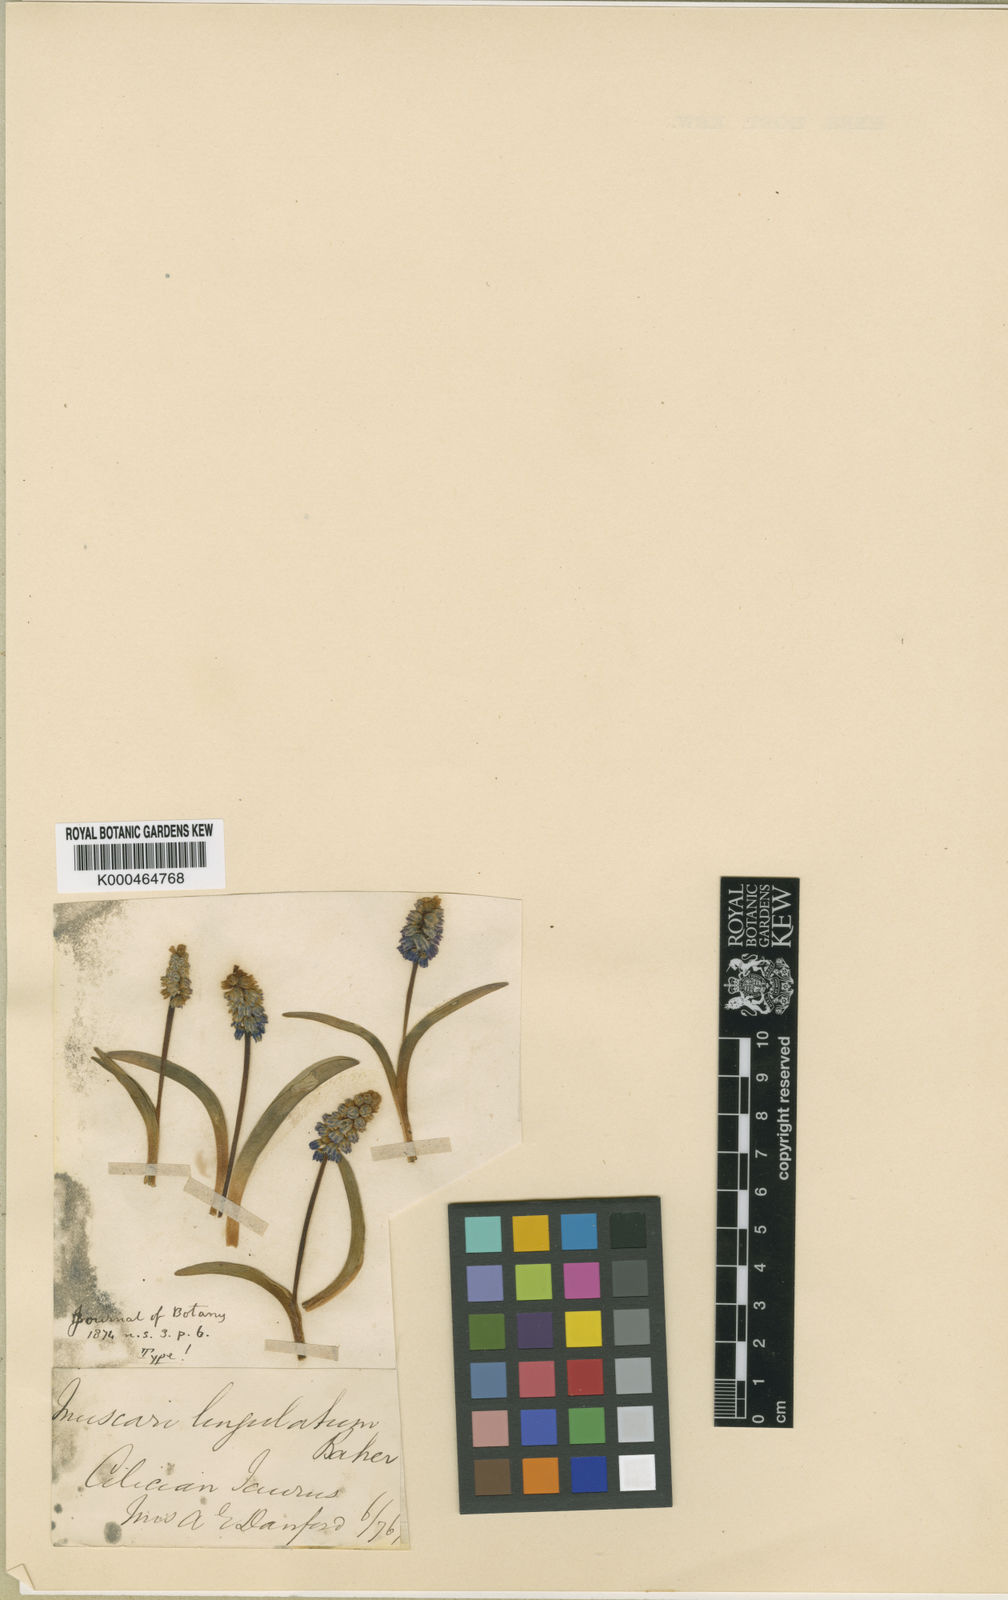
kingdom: Plantae
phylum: Tracheophyta
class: Liliopsida
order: Asparagales
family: Asparagaceae
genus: Muscari
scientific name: Muscari azureum
